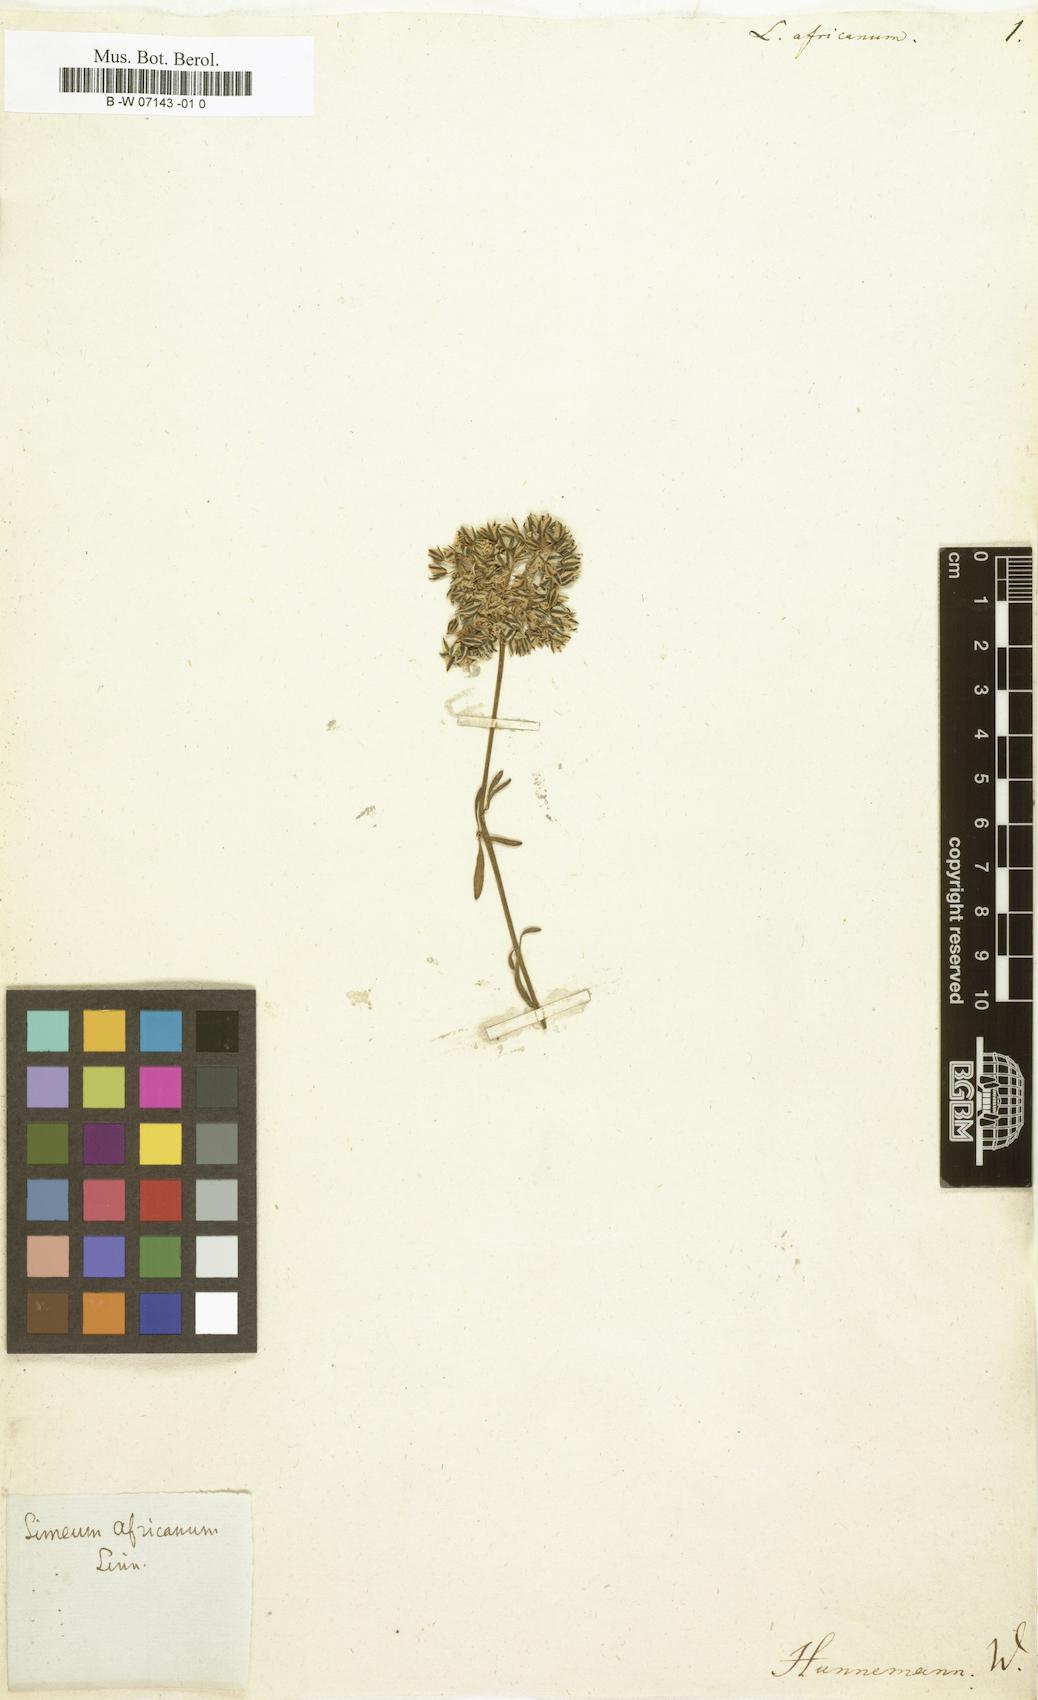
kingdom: Plantae
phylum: Tracheophyta
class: Magnoliopsida
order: Caryophyllales
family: Limeaceae
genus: Limeum
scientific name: Limeum africanum
